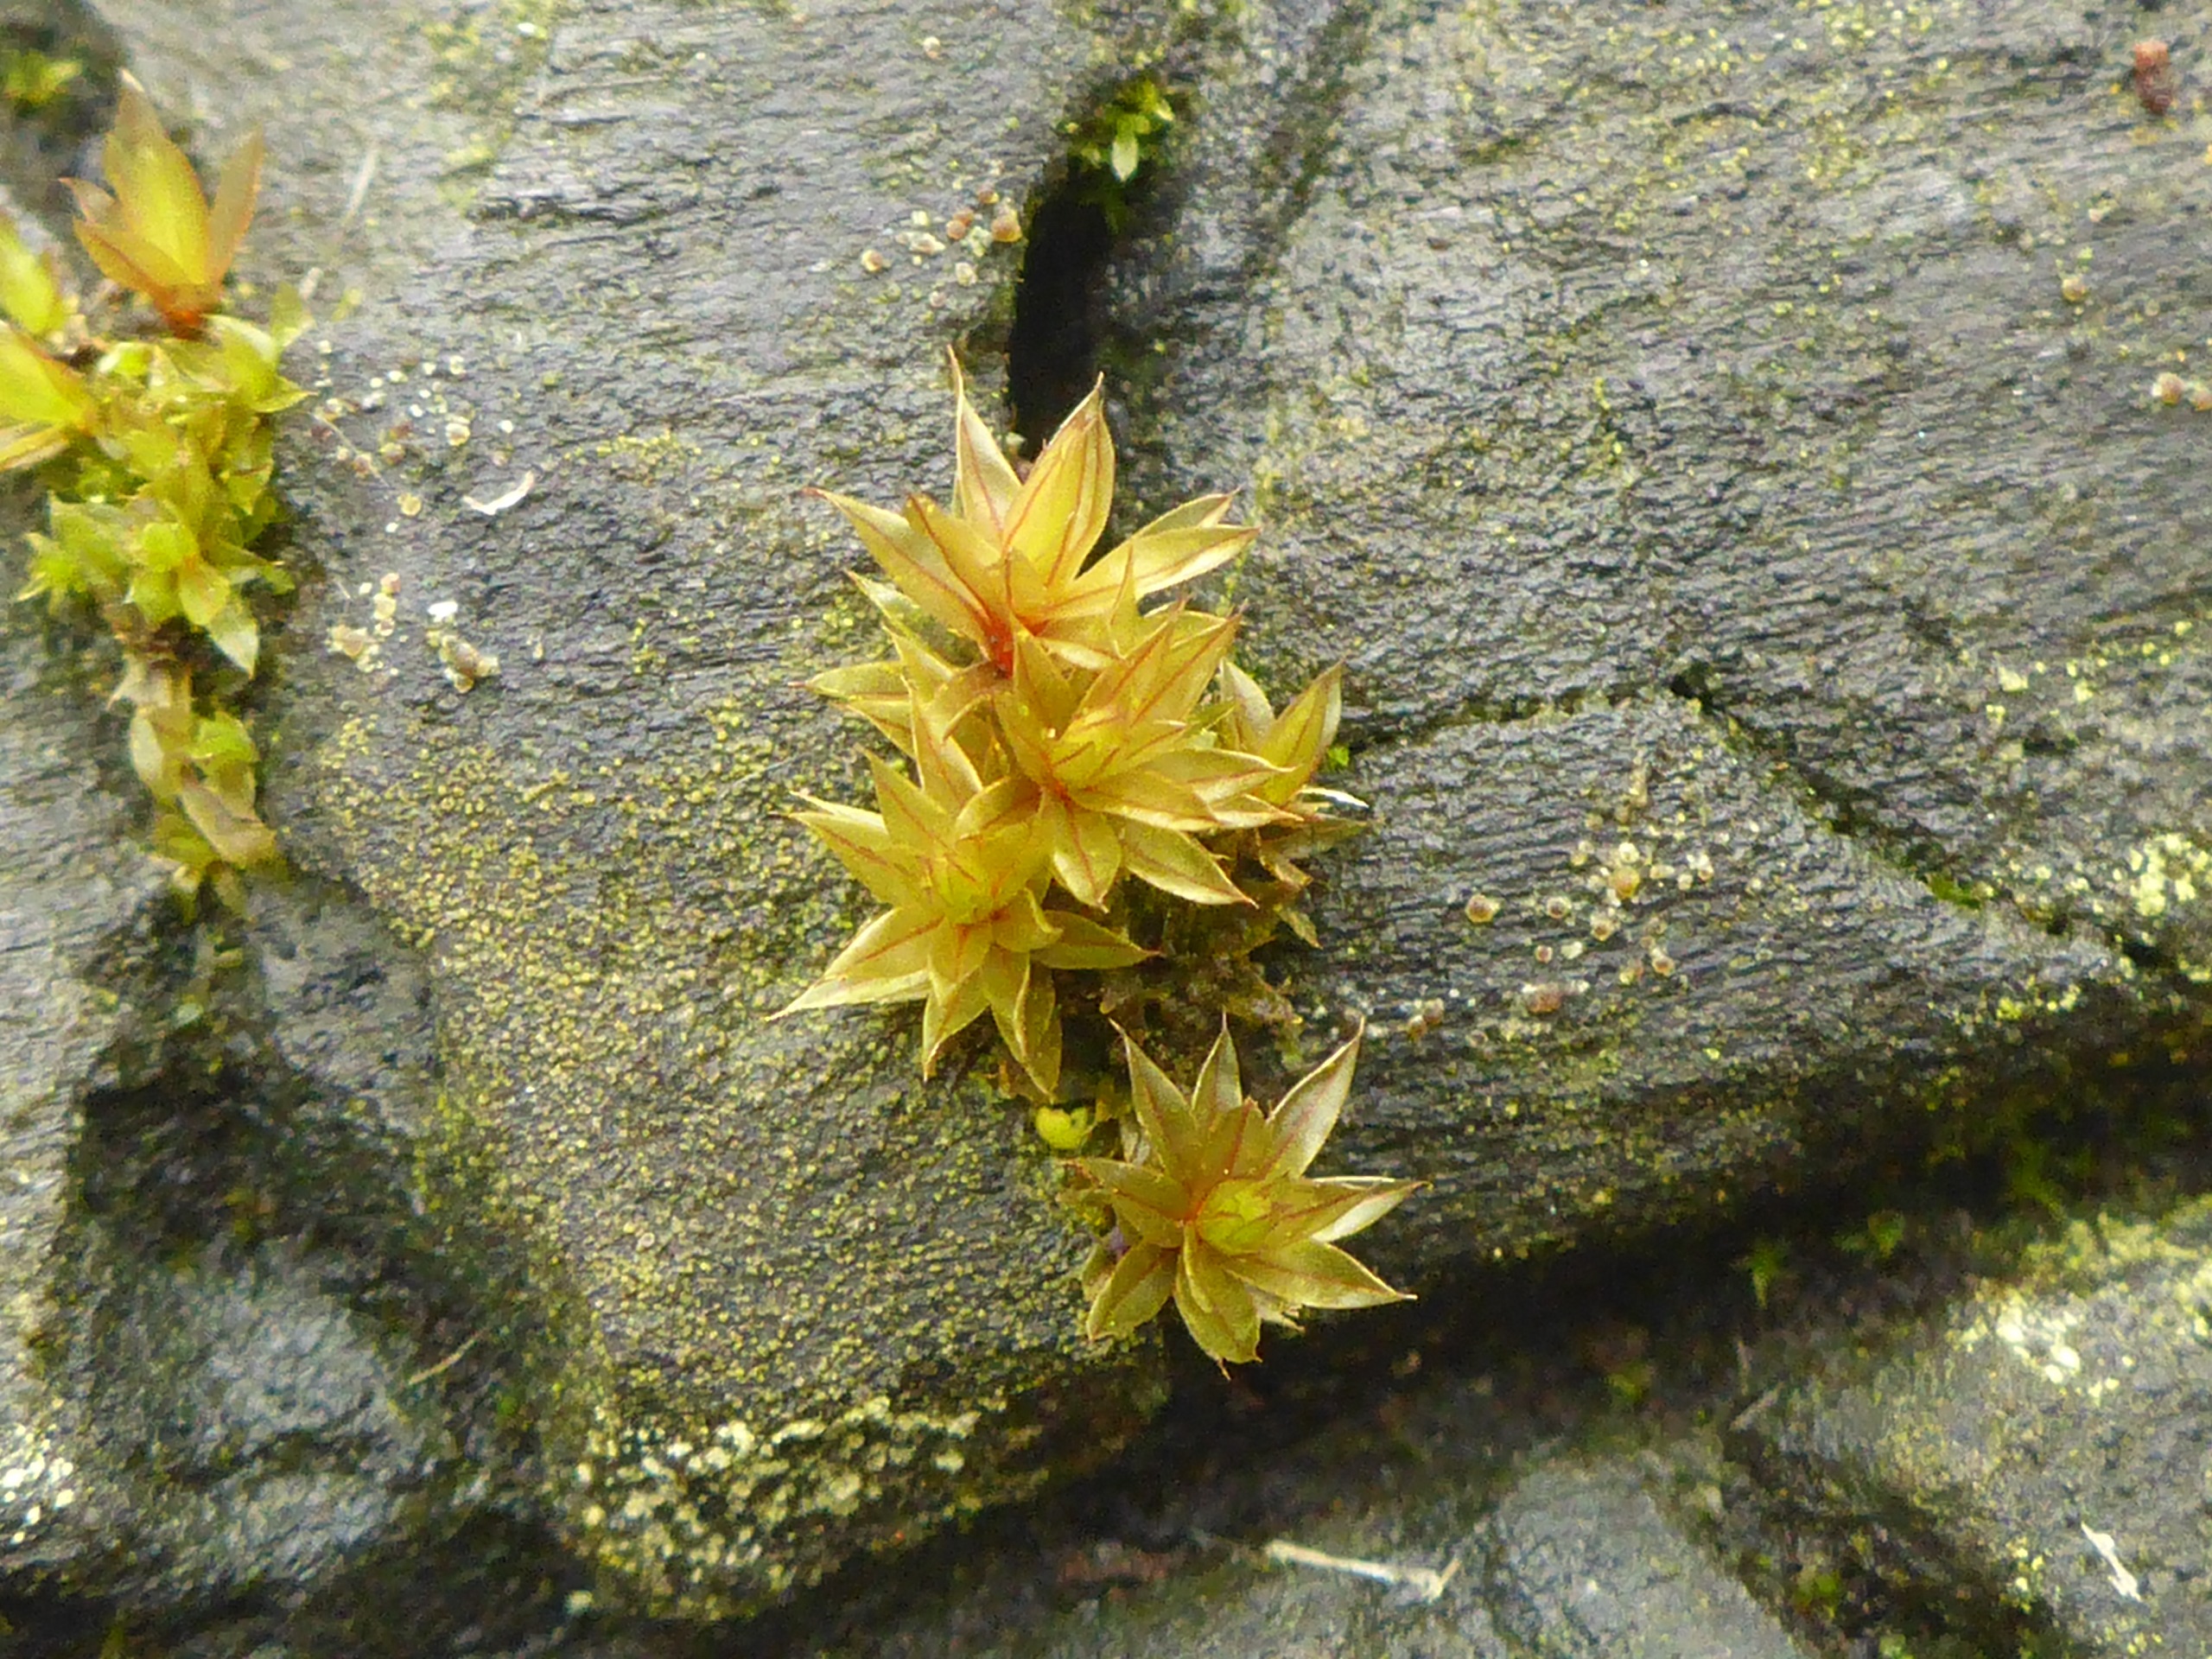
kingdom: Plantae
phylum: Bryophyta
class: Bryopsida
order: Bryales
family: Bryaceae
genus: Bryum
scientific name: Bryum
